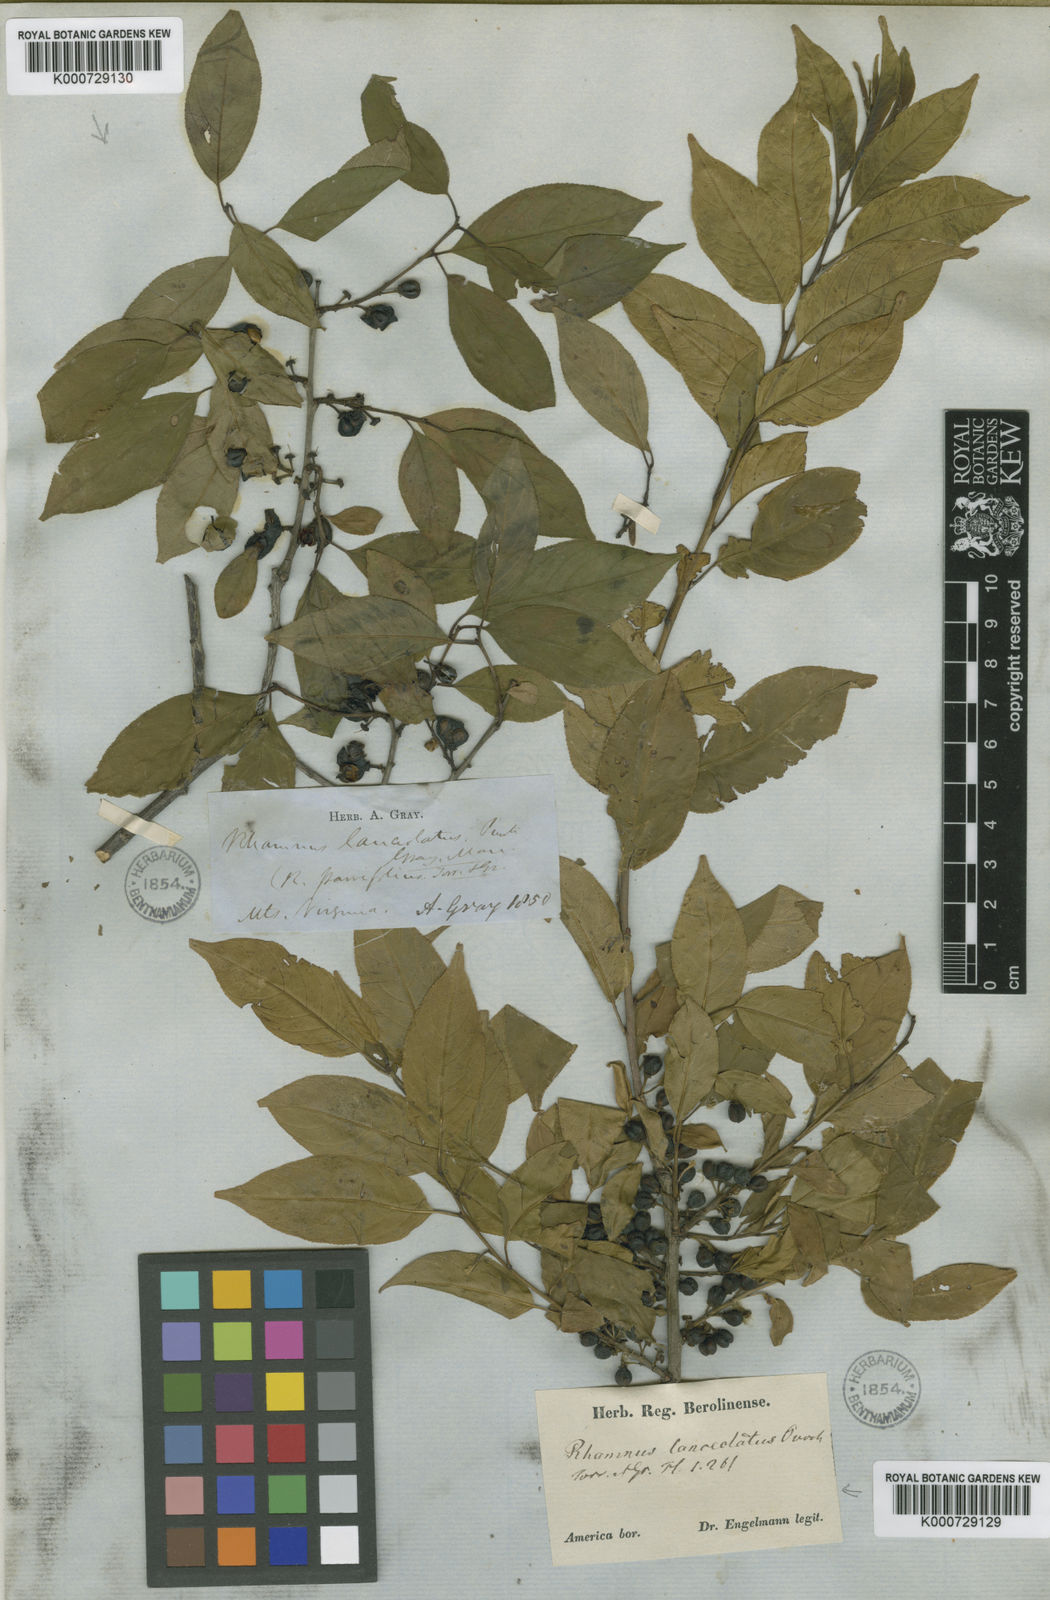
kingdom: Plantae
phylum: Tracheophyta
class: Magnoliopsida
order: Rosales
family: Rhamnaceae
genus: Endotropis
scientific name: Endotropis lanceolata
